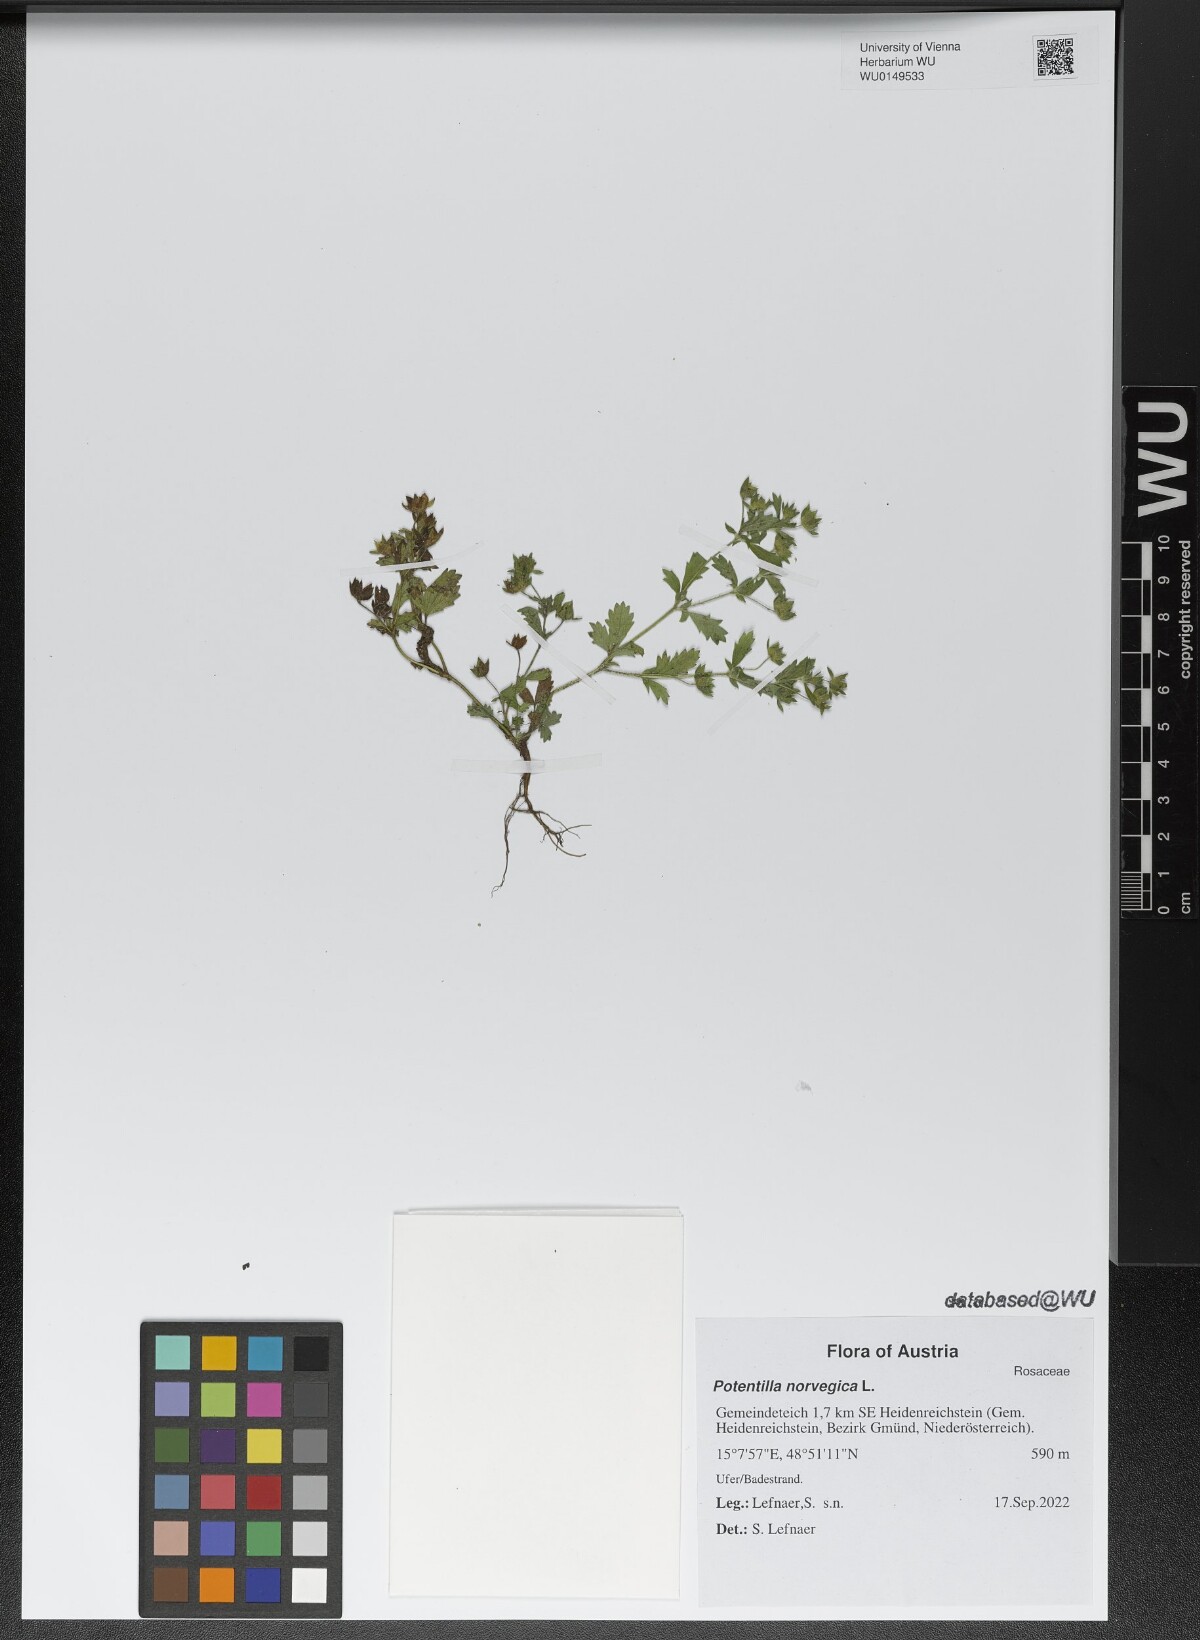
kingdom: Plantae
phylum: Tracheophyta
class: Magnoliopsida
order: Rosales
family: Rosaceae
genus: Potentilla
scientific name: Potentilla norvegica
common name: Ternate-leaved cinquefoil
